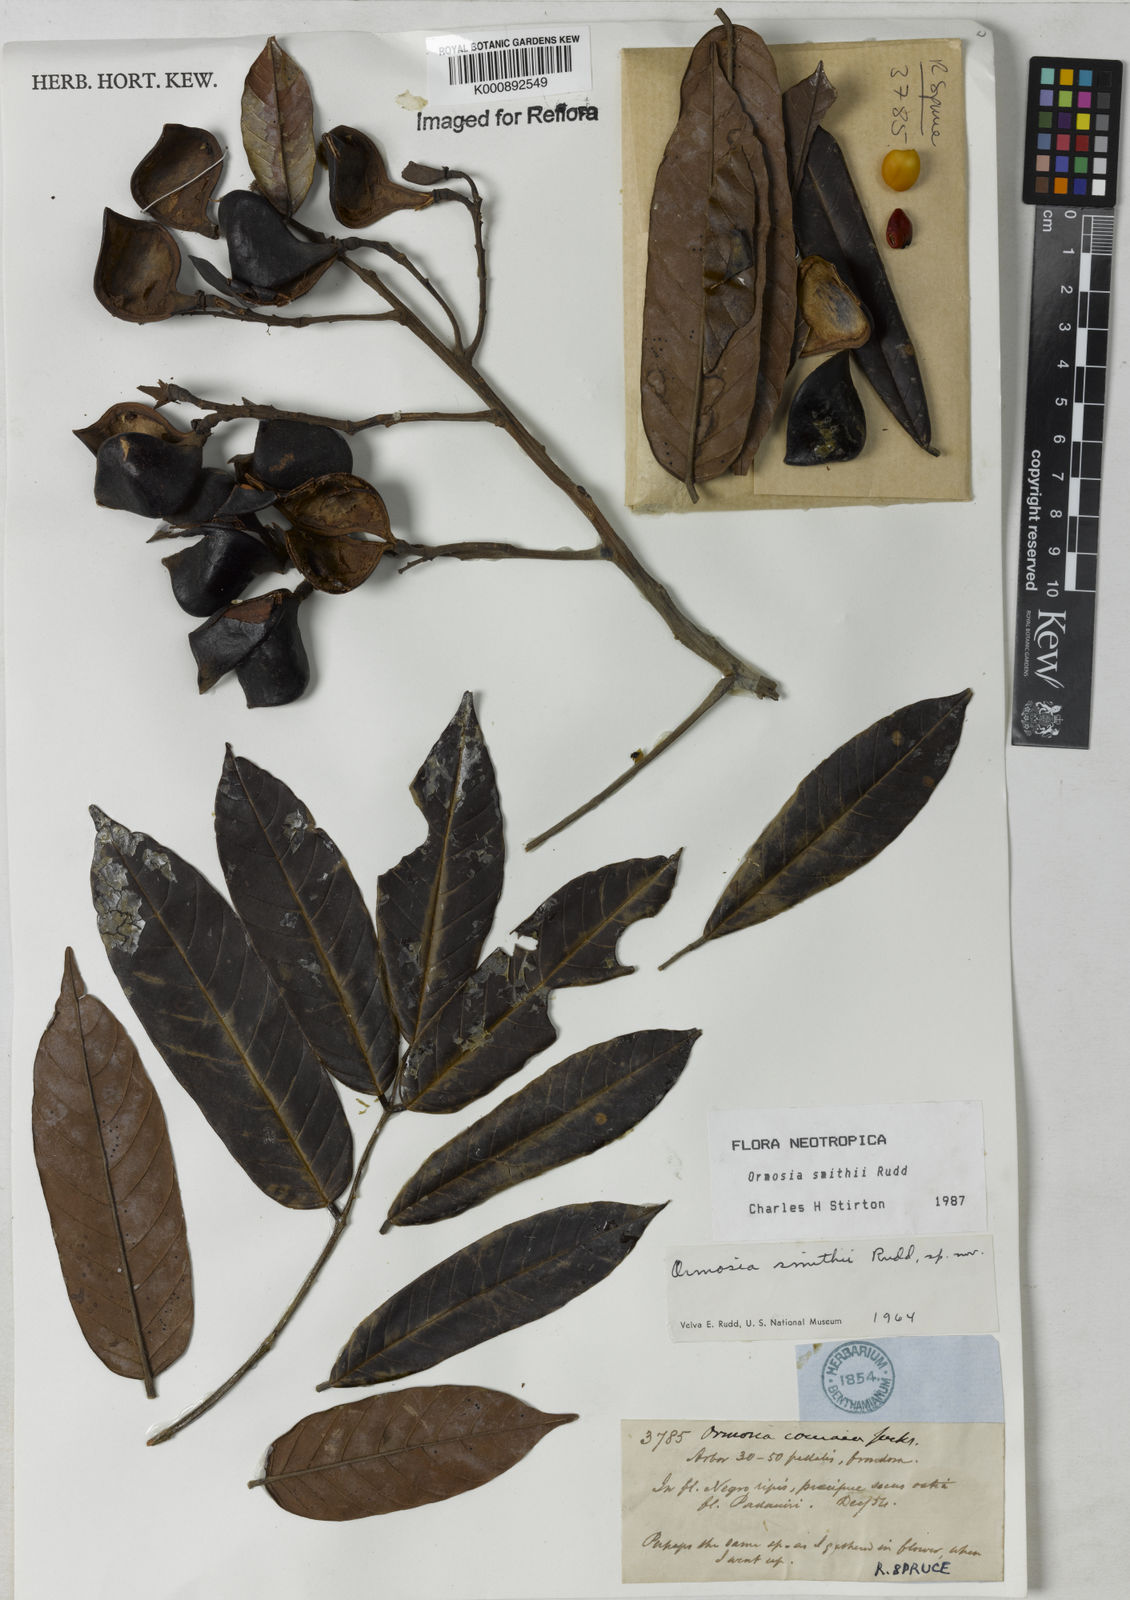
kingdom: Plantae
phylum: Tracheophyta
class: Magnoliopsida
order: Fabales
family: Fabaceae
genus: Ormosia
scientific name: Ormosia smithii
